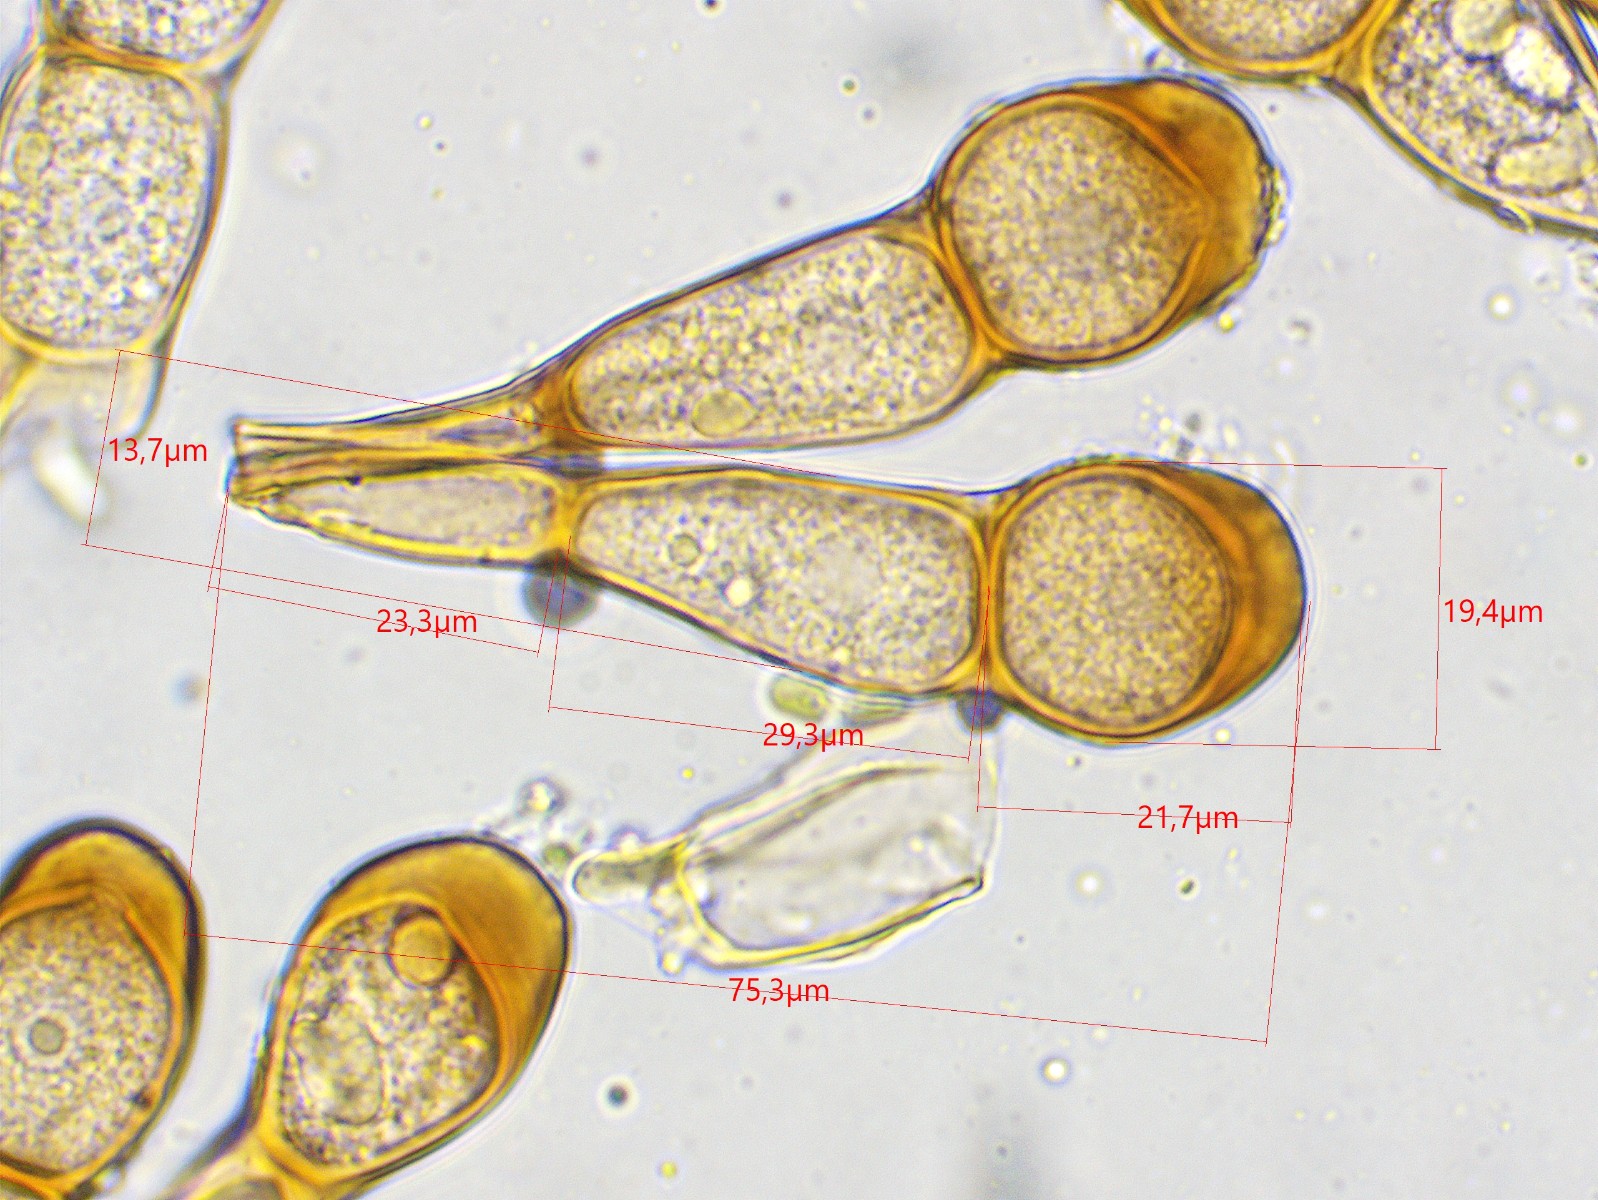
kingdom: Fungi
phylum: Basidiomycota
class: Pucciniomycetes
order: Pucciniales
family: Pucciniaceae
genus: Puccinia
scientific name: Puccinia caricina
